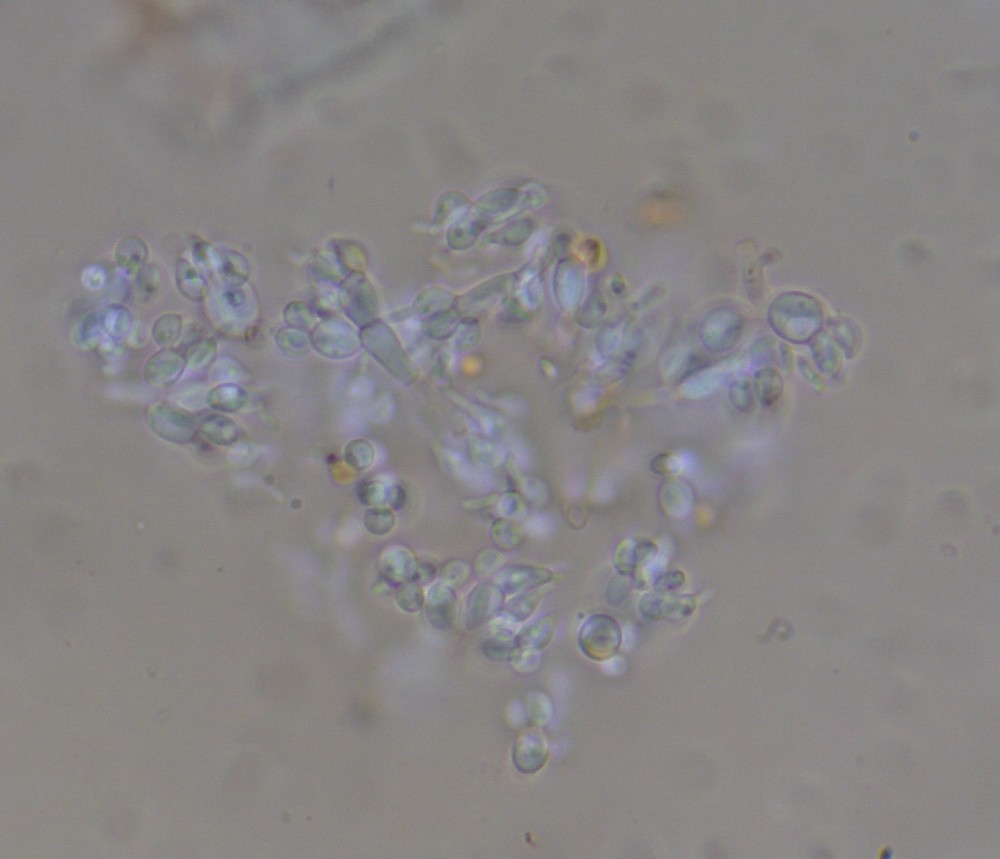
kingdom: Fungi
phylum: Ascomycota
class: Leotiomycetes
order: Helotiales
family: Gelatinodiscaceae
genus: Ascocoryne
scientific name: Ascocoryne albida
